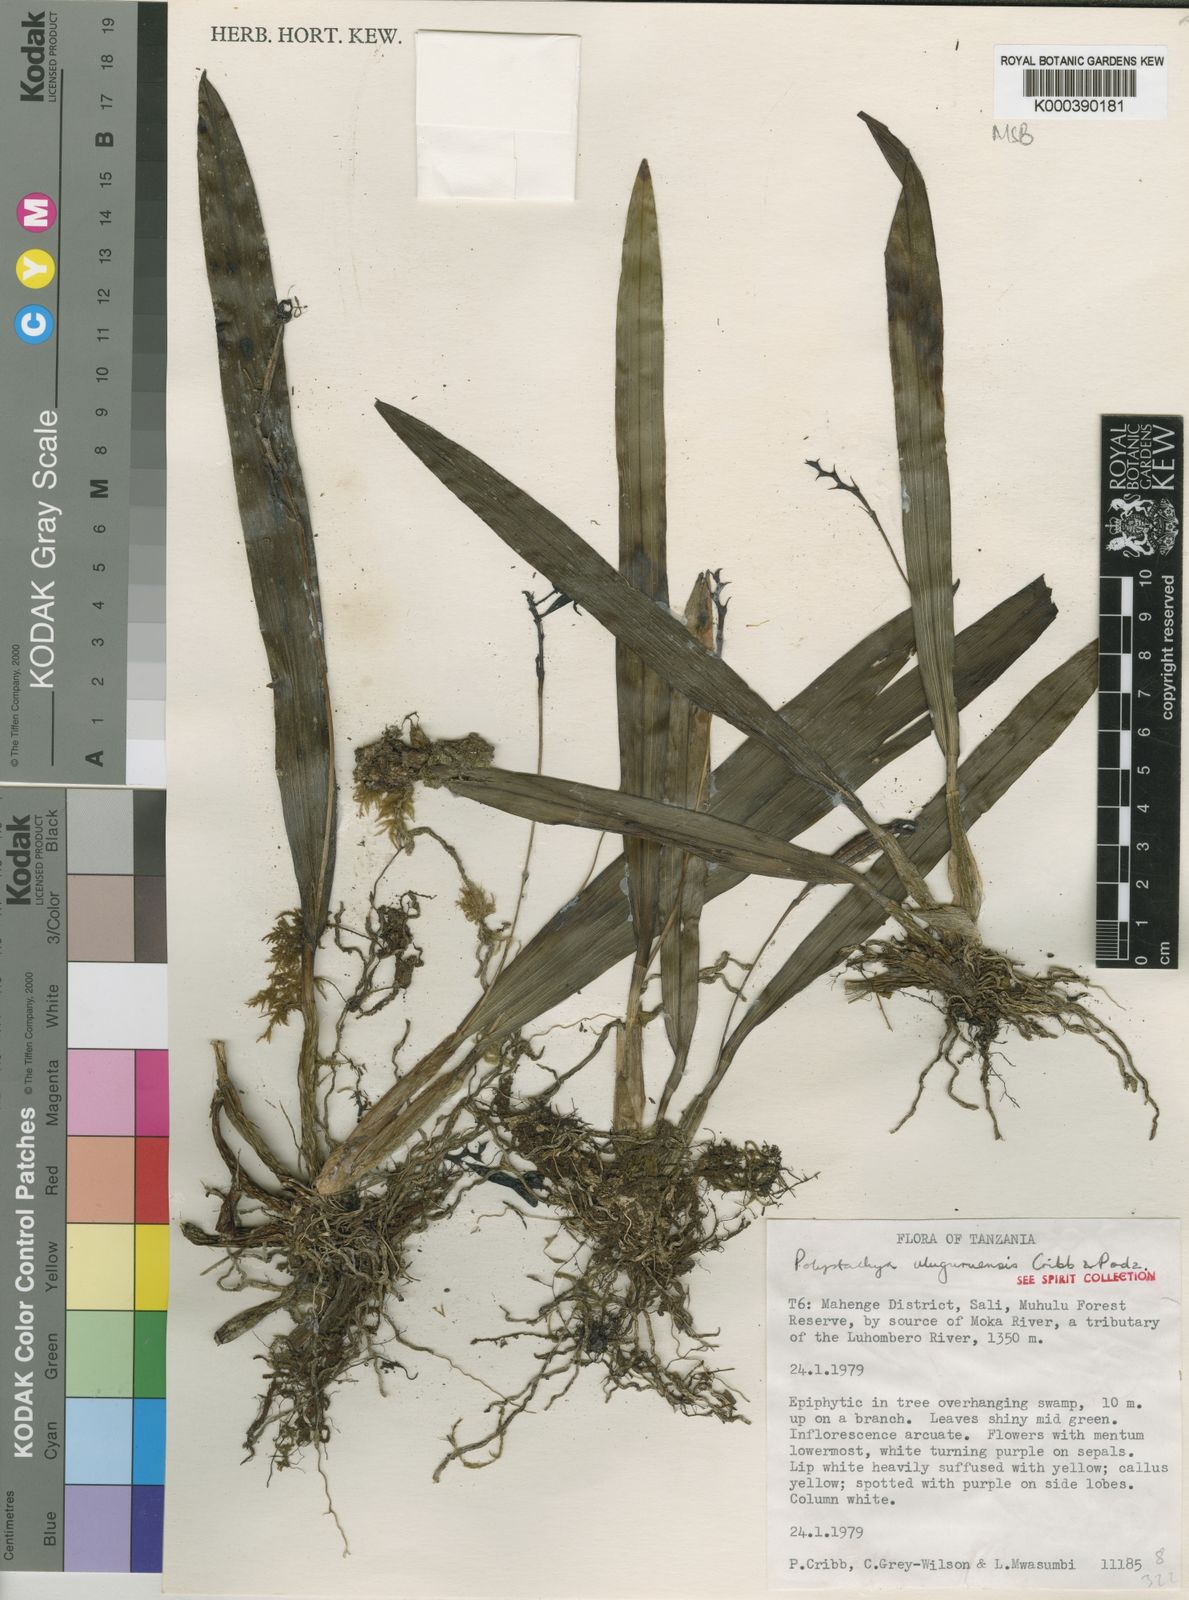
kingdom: Plantae
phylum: Tracheophyta
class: Liliopsida
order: Asparagales
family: Orchidaceae
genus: Polystachya
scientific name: Polystachya uluguruensis
